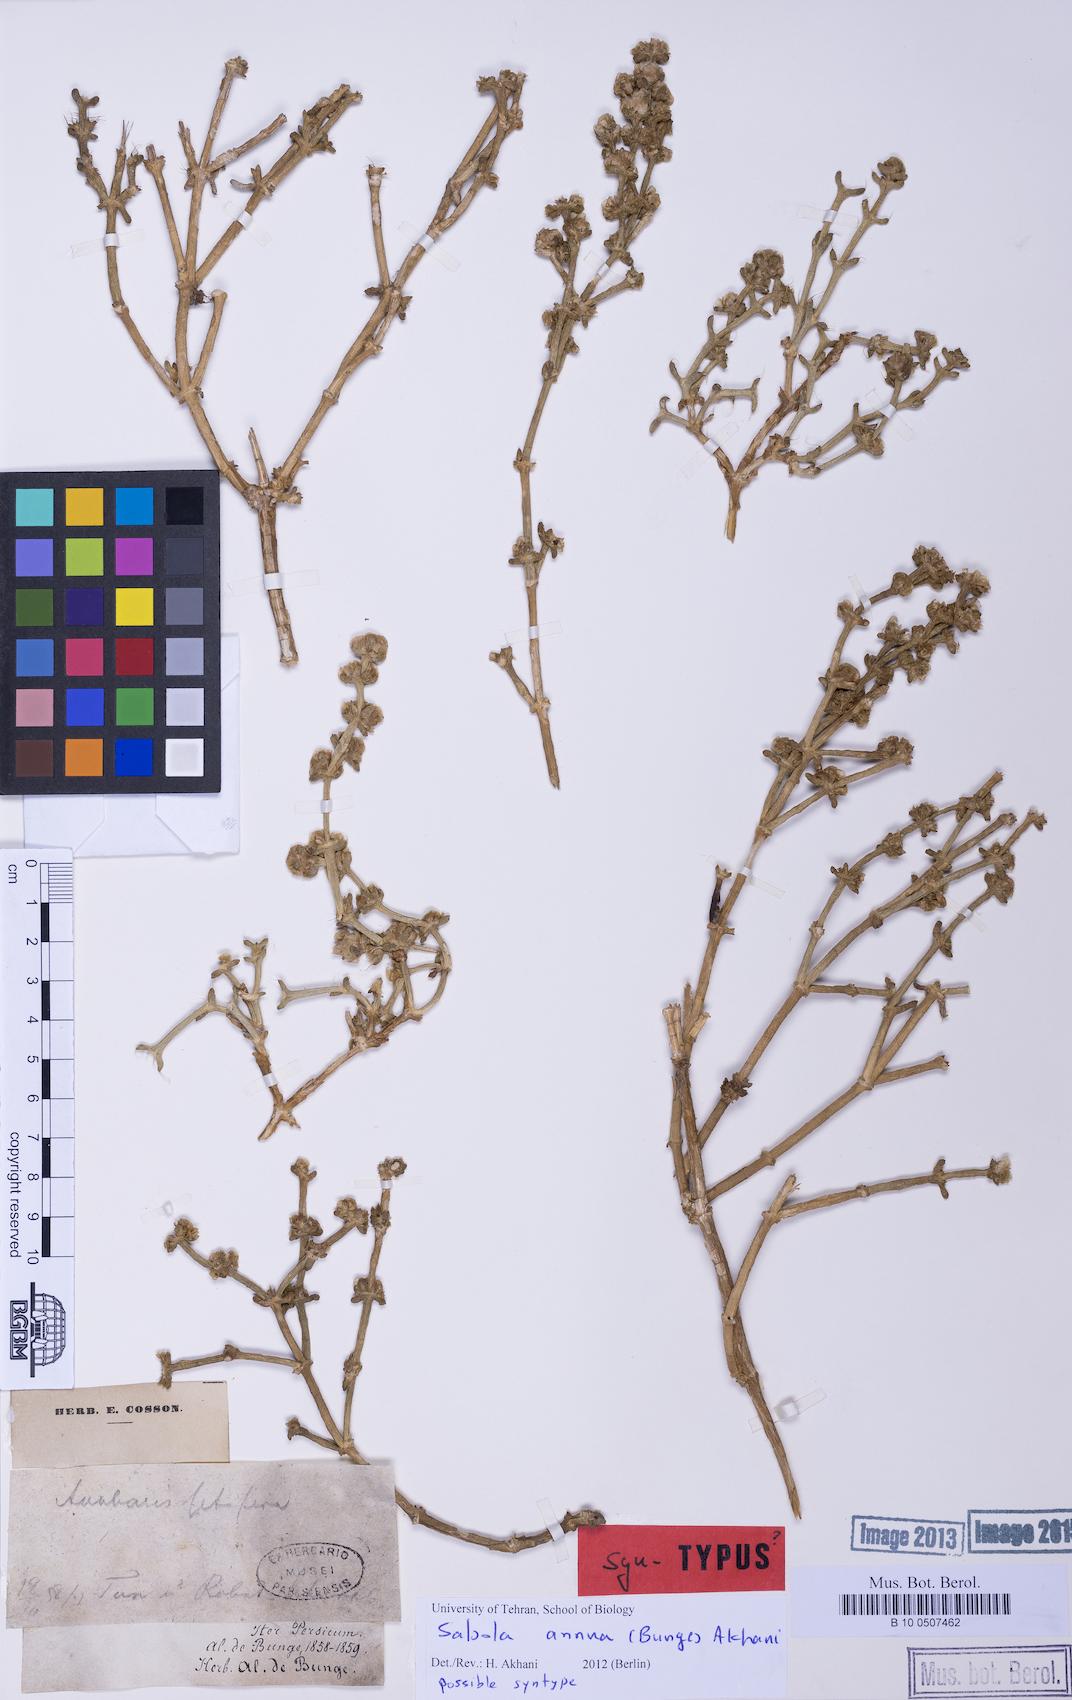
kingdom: Plantae
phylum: Tracheophyta
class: Magnoliopsida
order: Caryophyllales
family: Amaranthaceae
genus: Salsola
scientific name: Salsola
